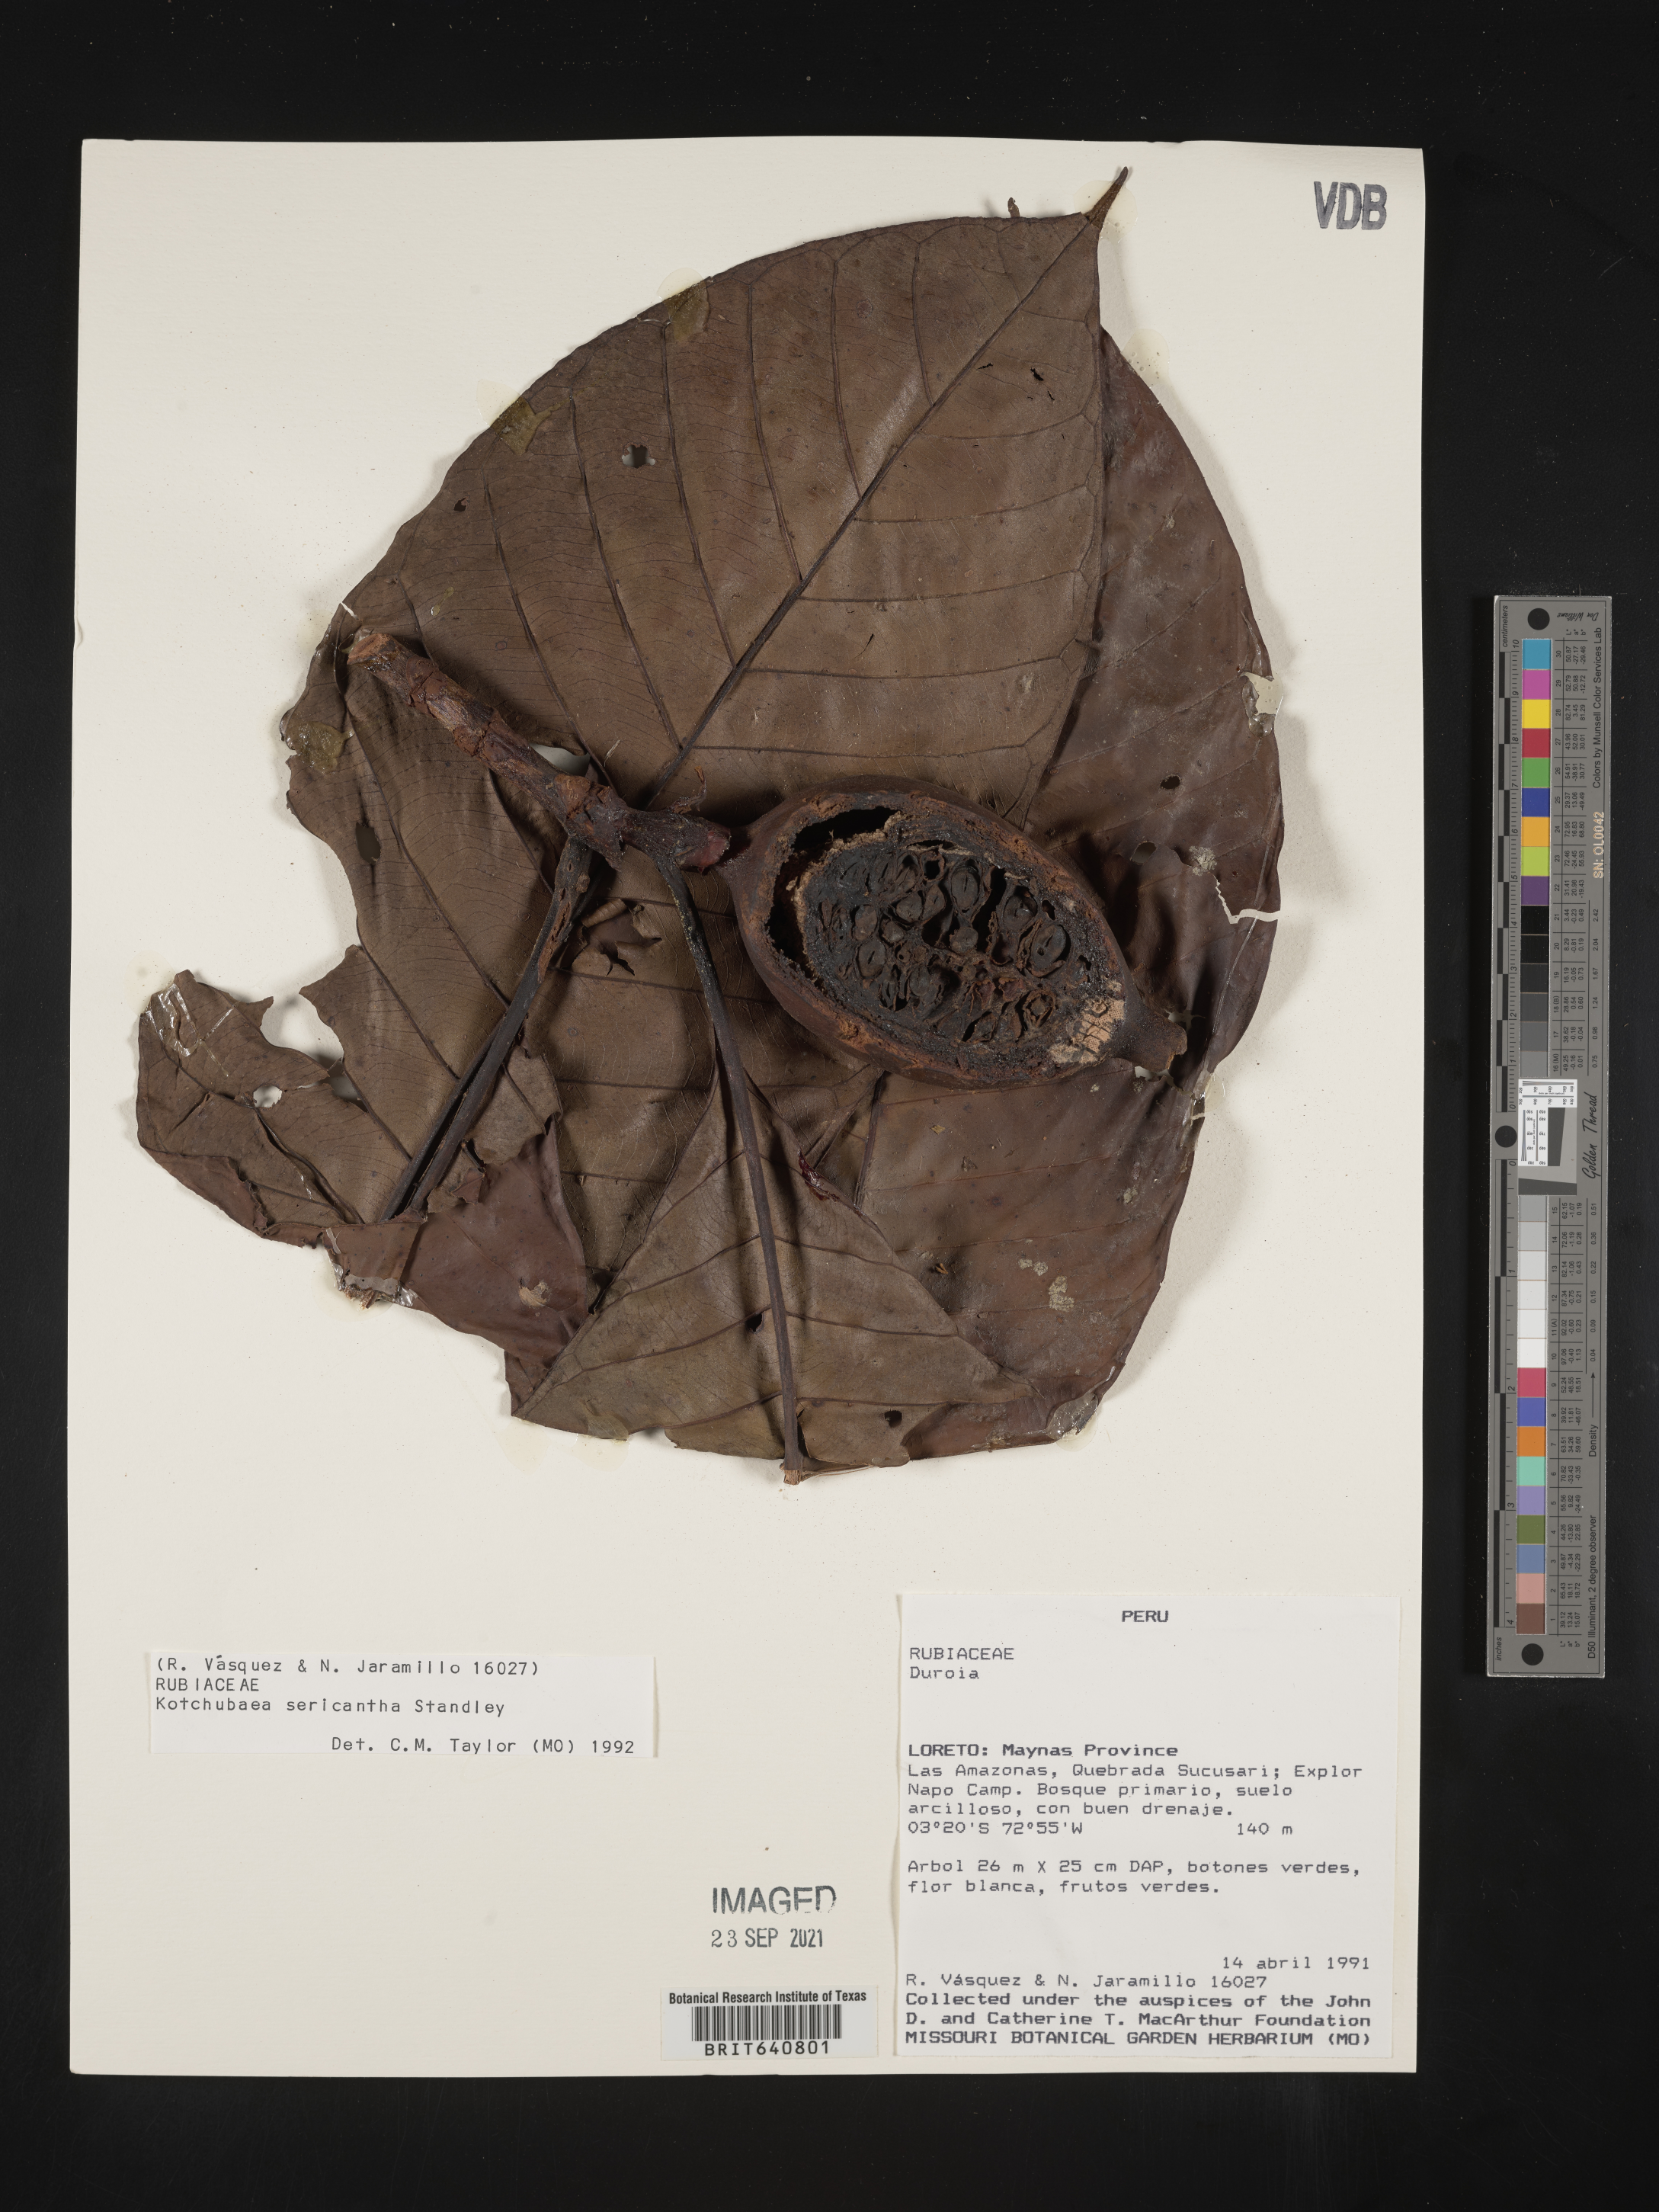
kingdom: Plantae
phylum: Tracheophyta
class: Magnoliopsida
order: Gentianales
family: Rubiaceae
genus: Kutchubaea
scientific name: Kutchubaea
